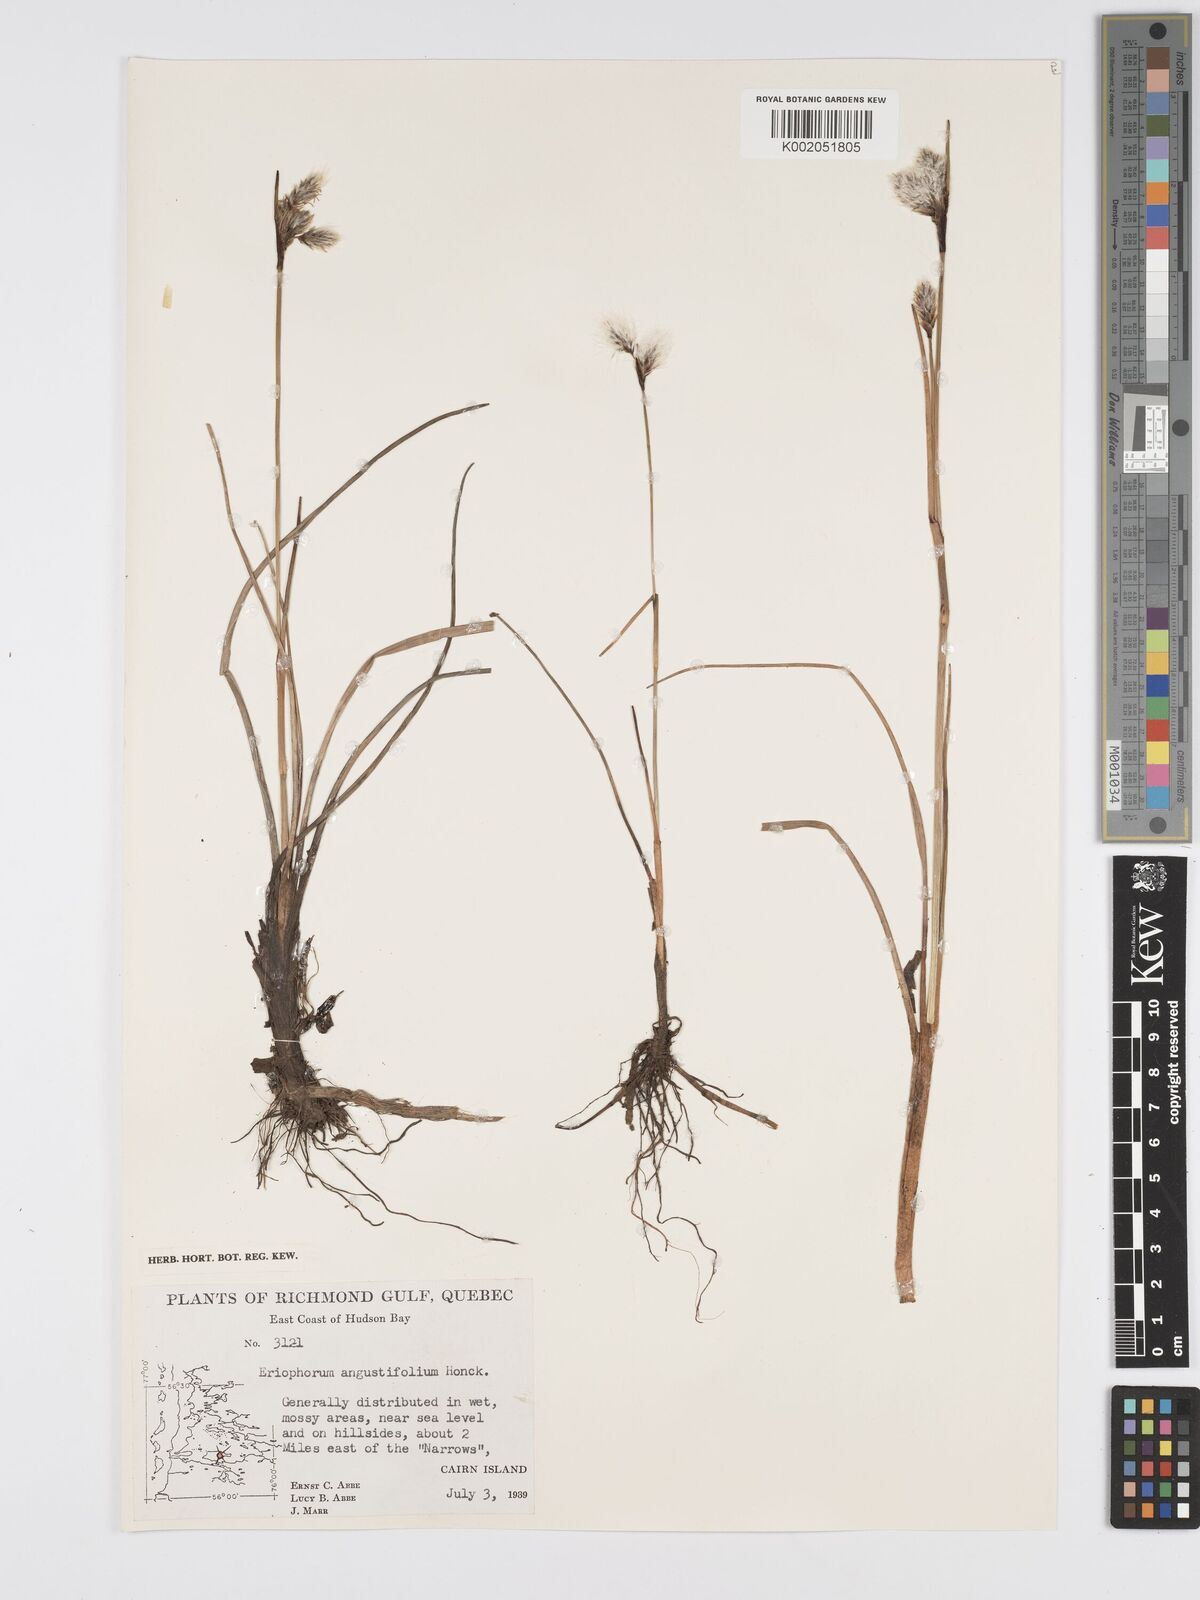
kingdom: Plantae
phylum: Tracheophyta
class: Liliopsida
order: Poales
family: Cyperaceae
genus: Eriophorum
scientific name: Eriophorum angustifolium
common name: Common cottongrass
